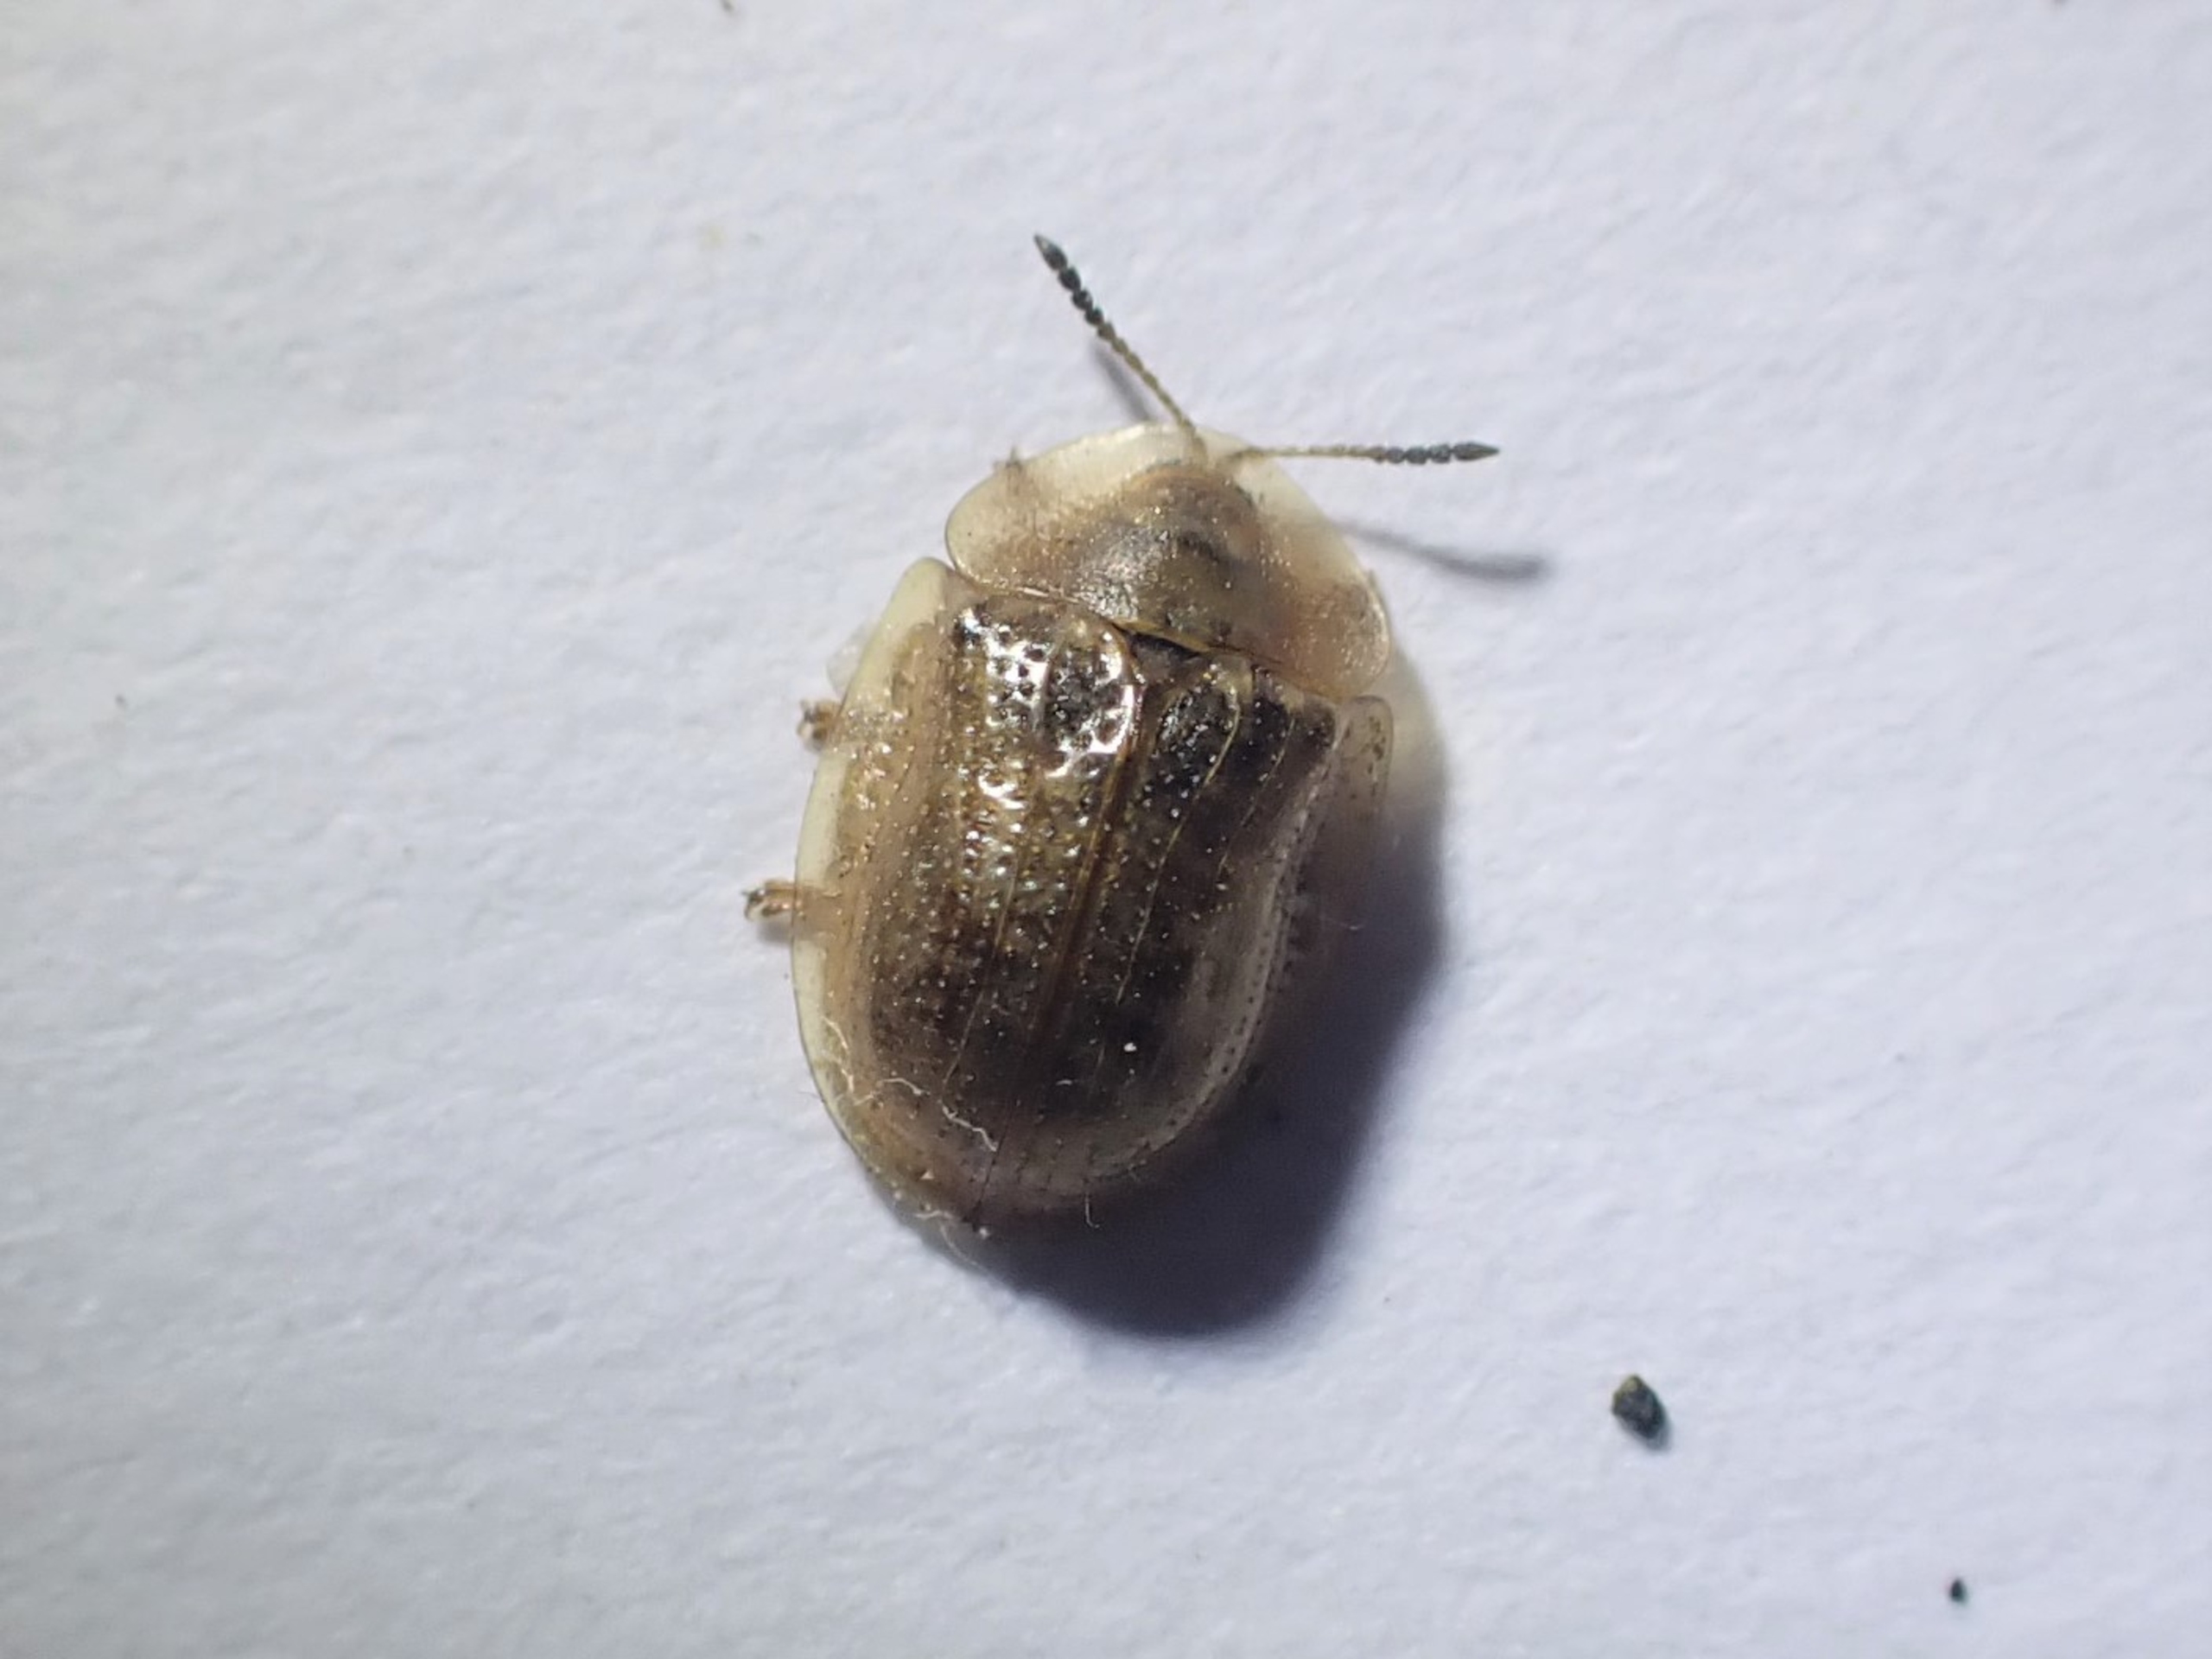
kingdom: Animalia
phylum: Arthropoda
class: Insecta
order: Coleoptera
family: Chrysomelidae
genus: Cassida
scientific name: Cassida flaveola
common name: Gulbrun skjoldbille
